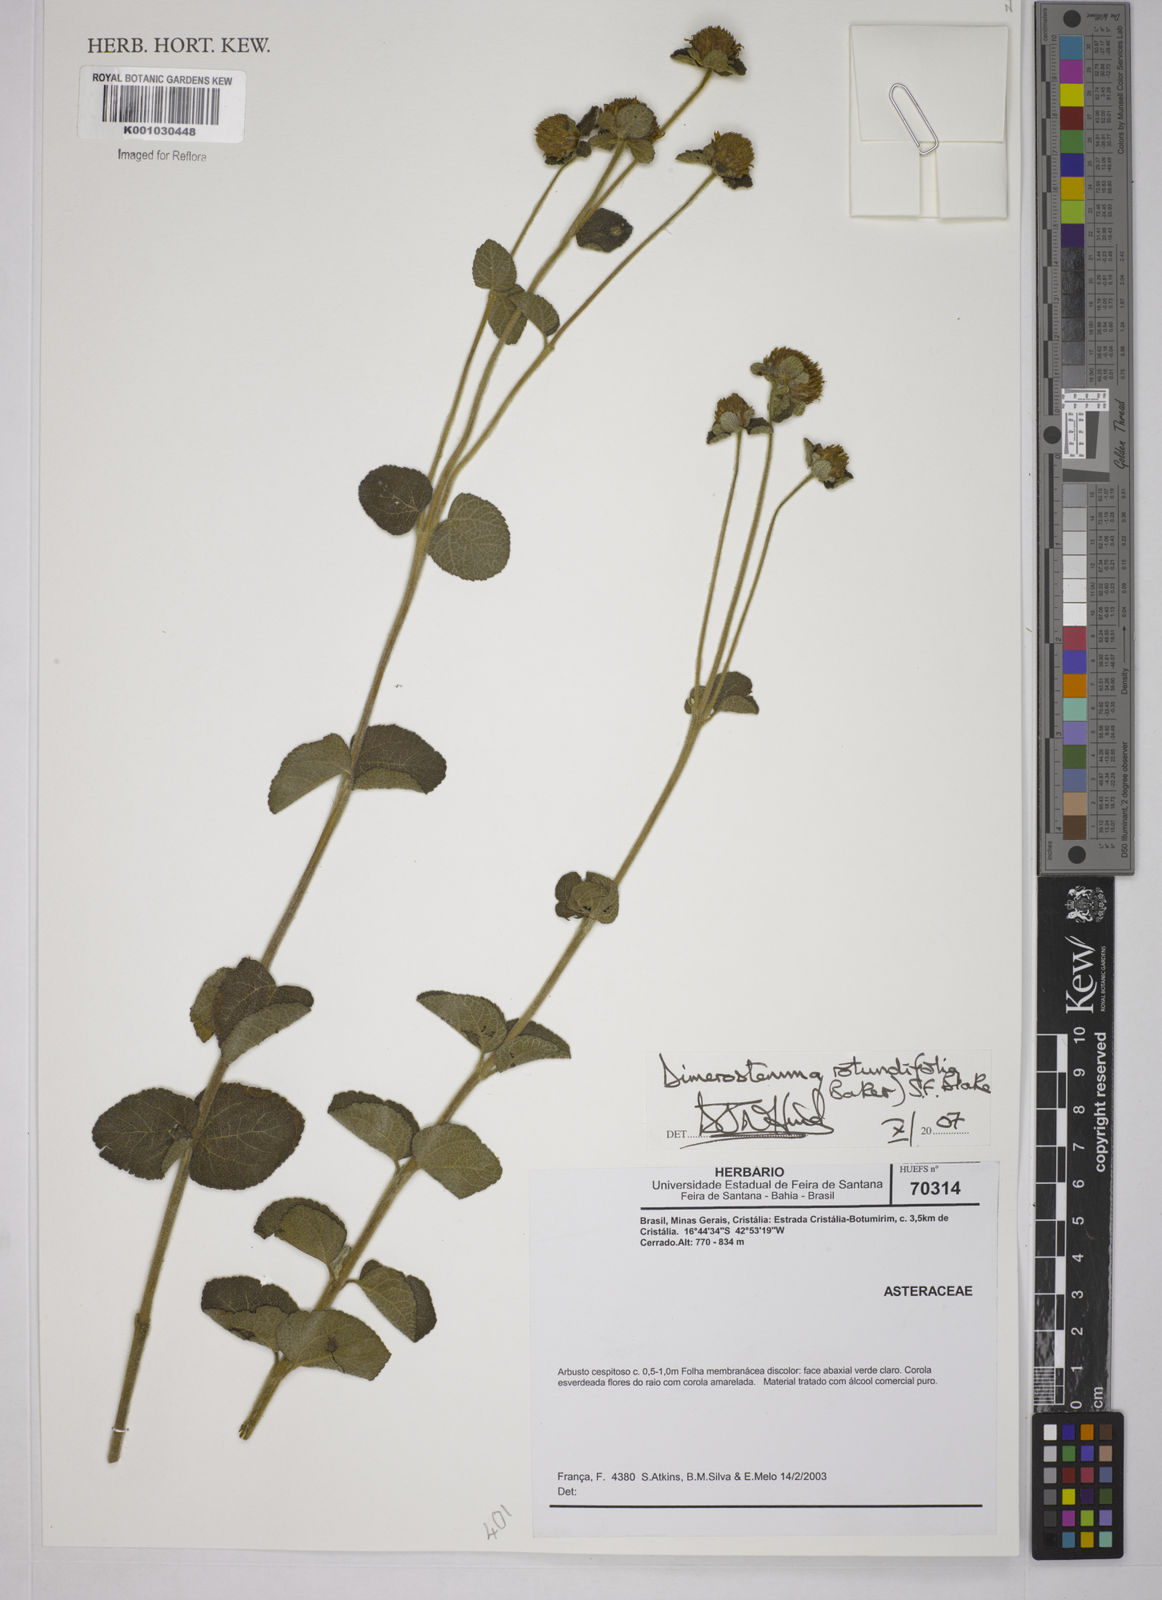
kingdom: Plantae
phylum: Tracheophyta
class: Magnoliopsida
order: Asterales
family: Asteraceae
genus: Dimerostemma
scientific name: Dimerostemma brasilianum
